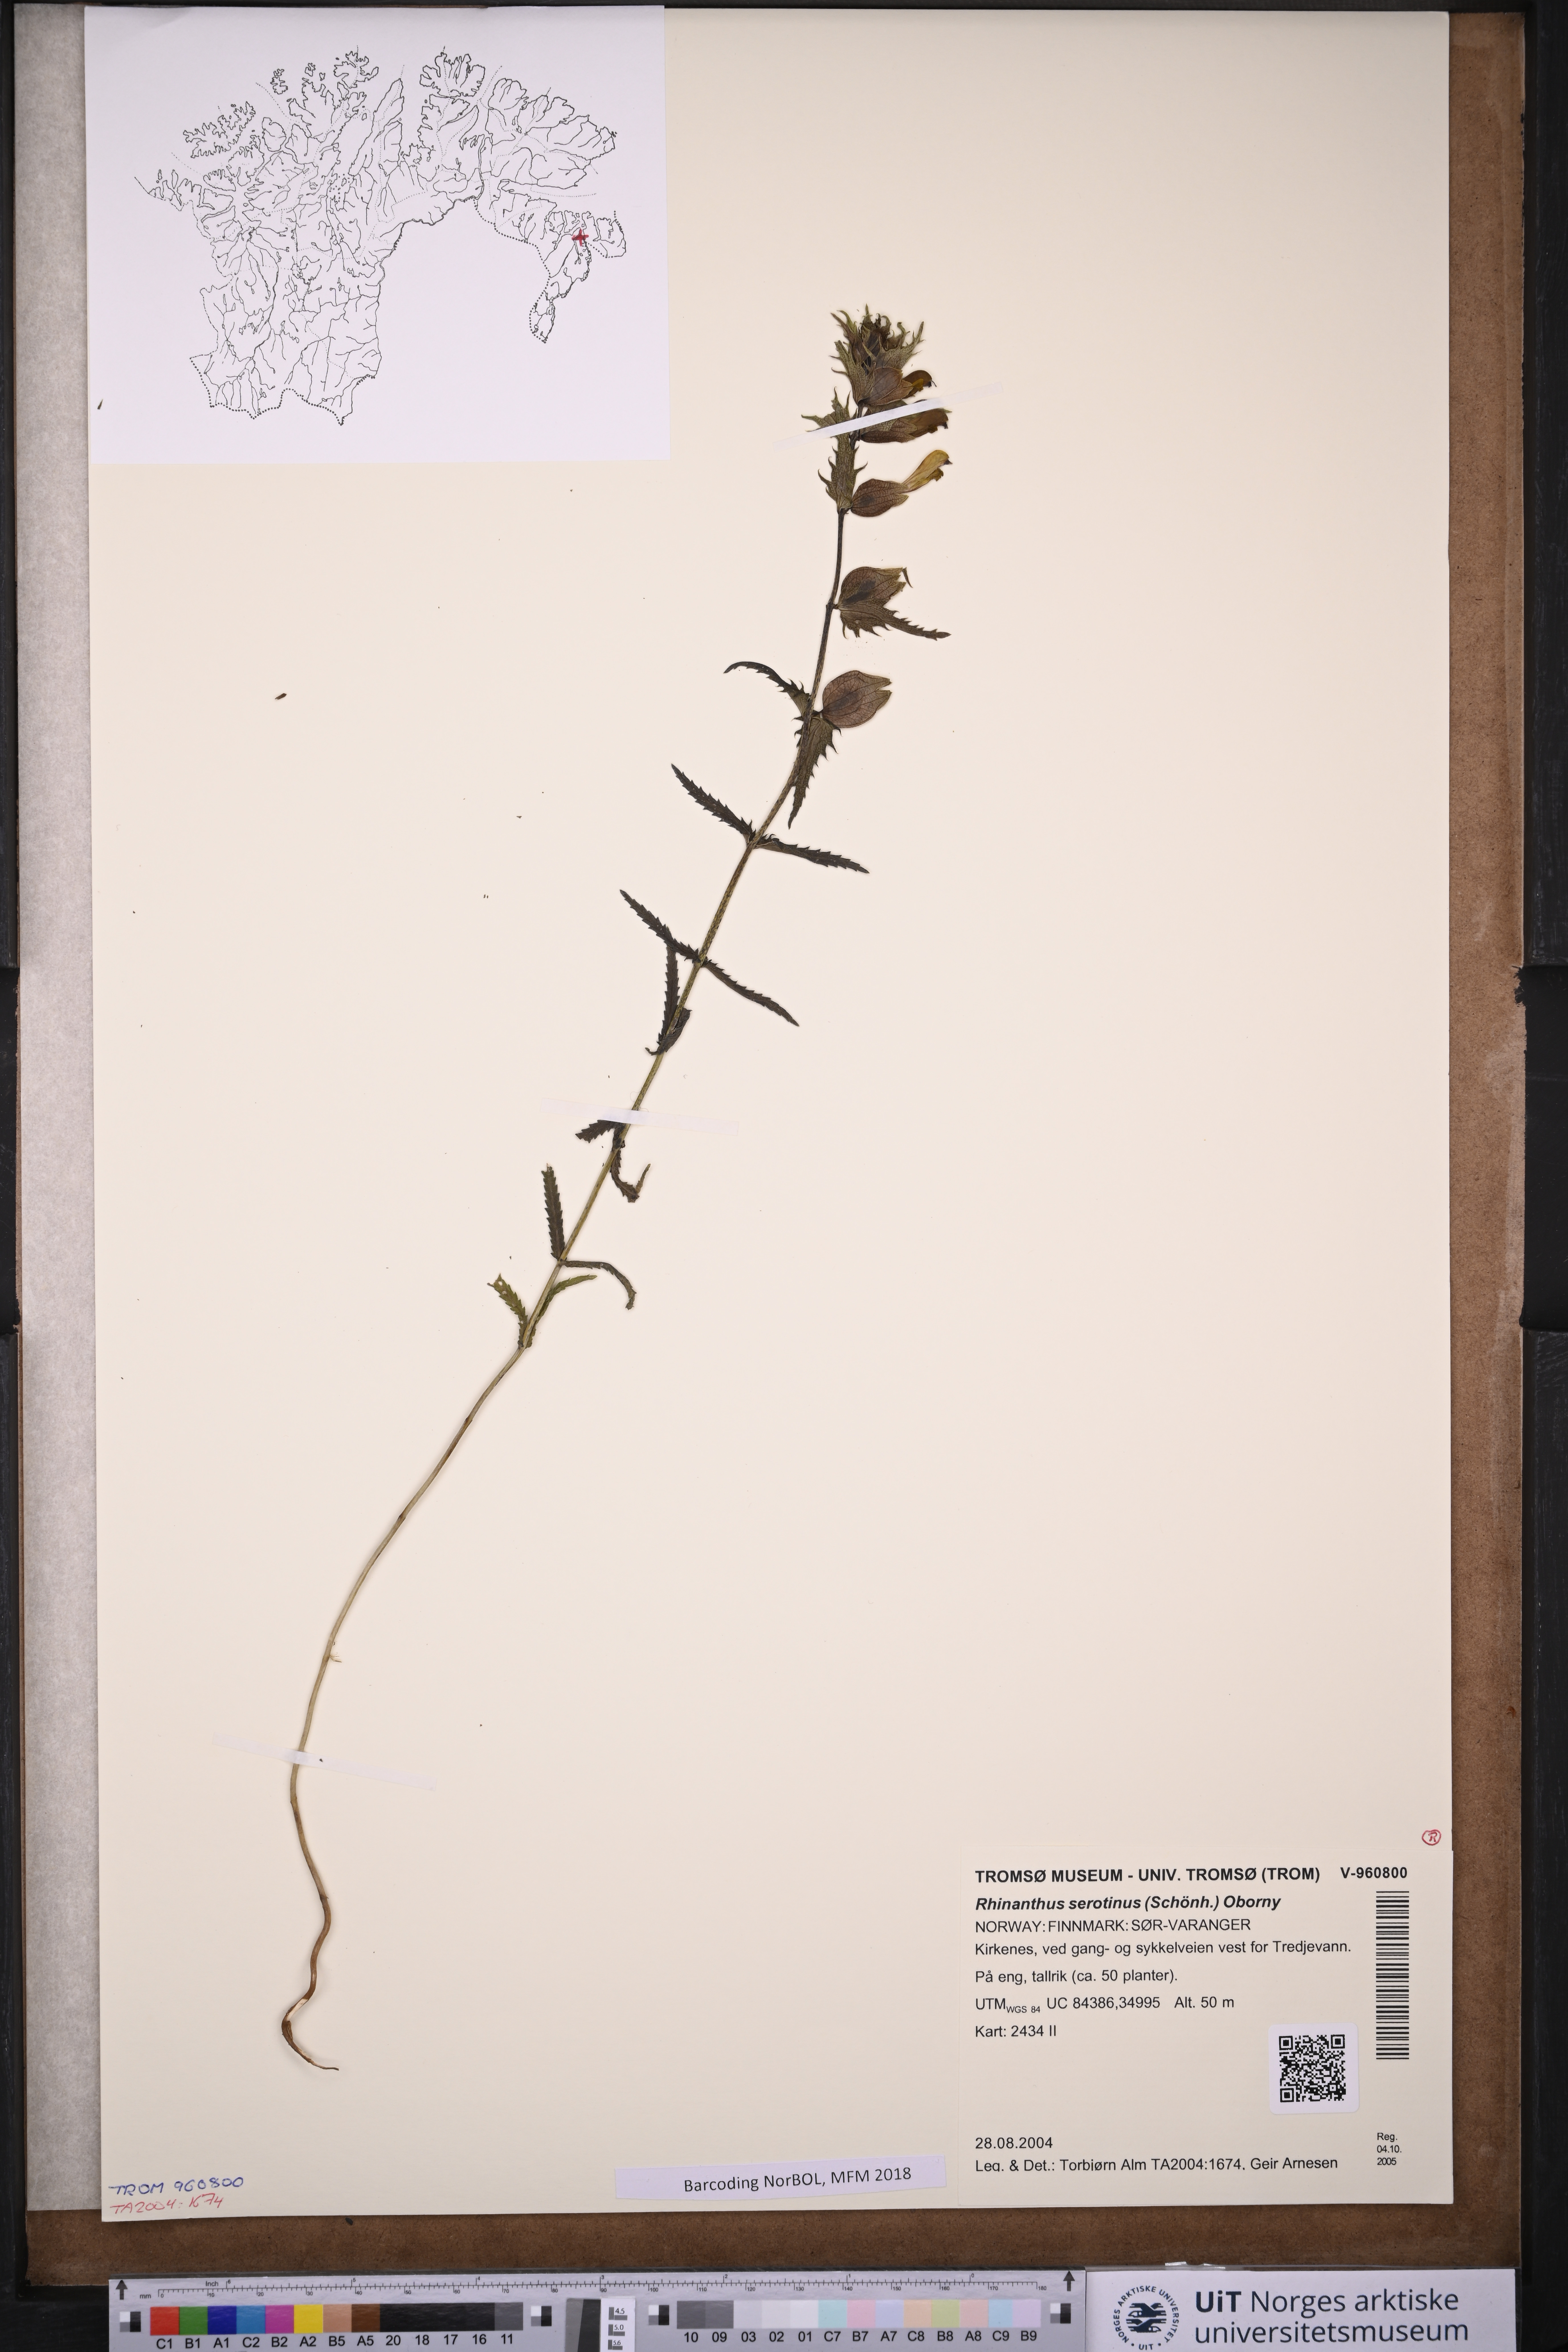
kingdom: Plantae
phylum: Tracheophyta
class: Magnoliopsida
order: Lamiales
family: Orobanchaceae
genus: Rhinanthus
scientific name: Rhinanthus
